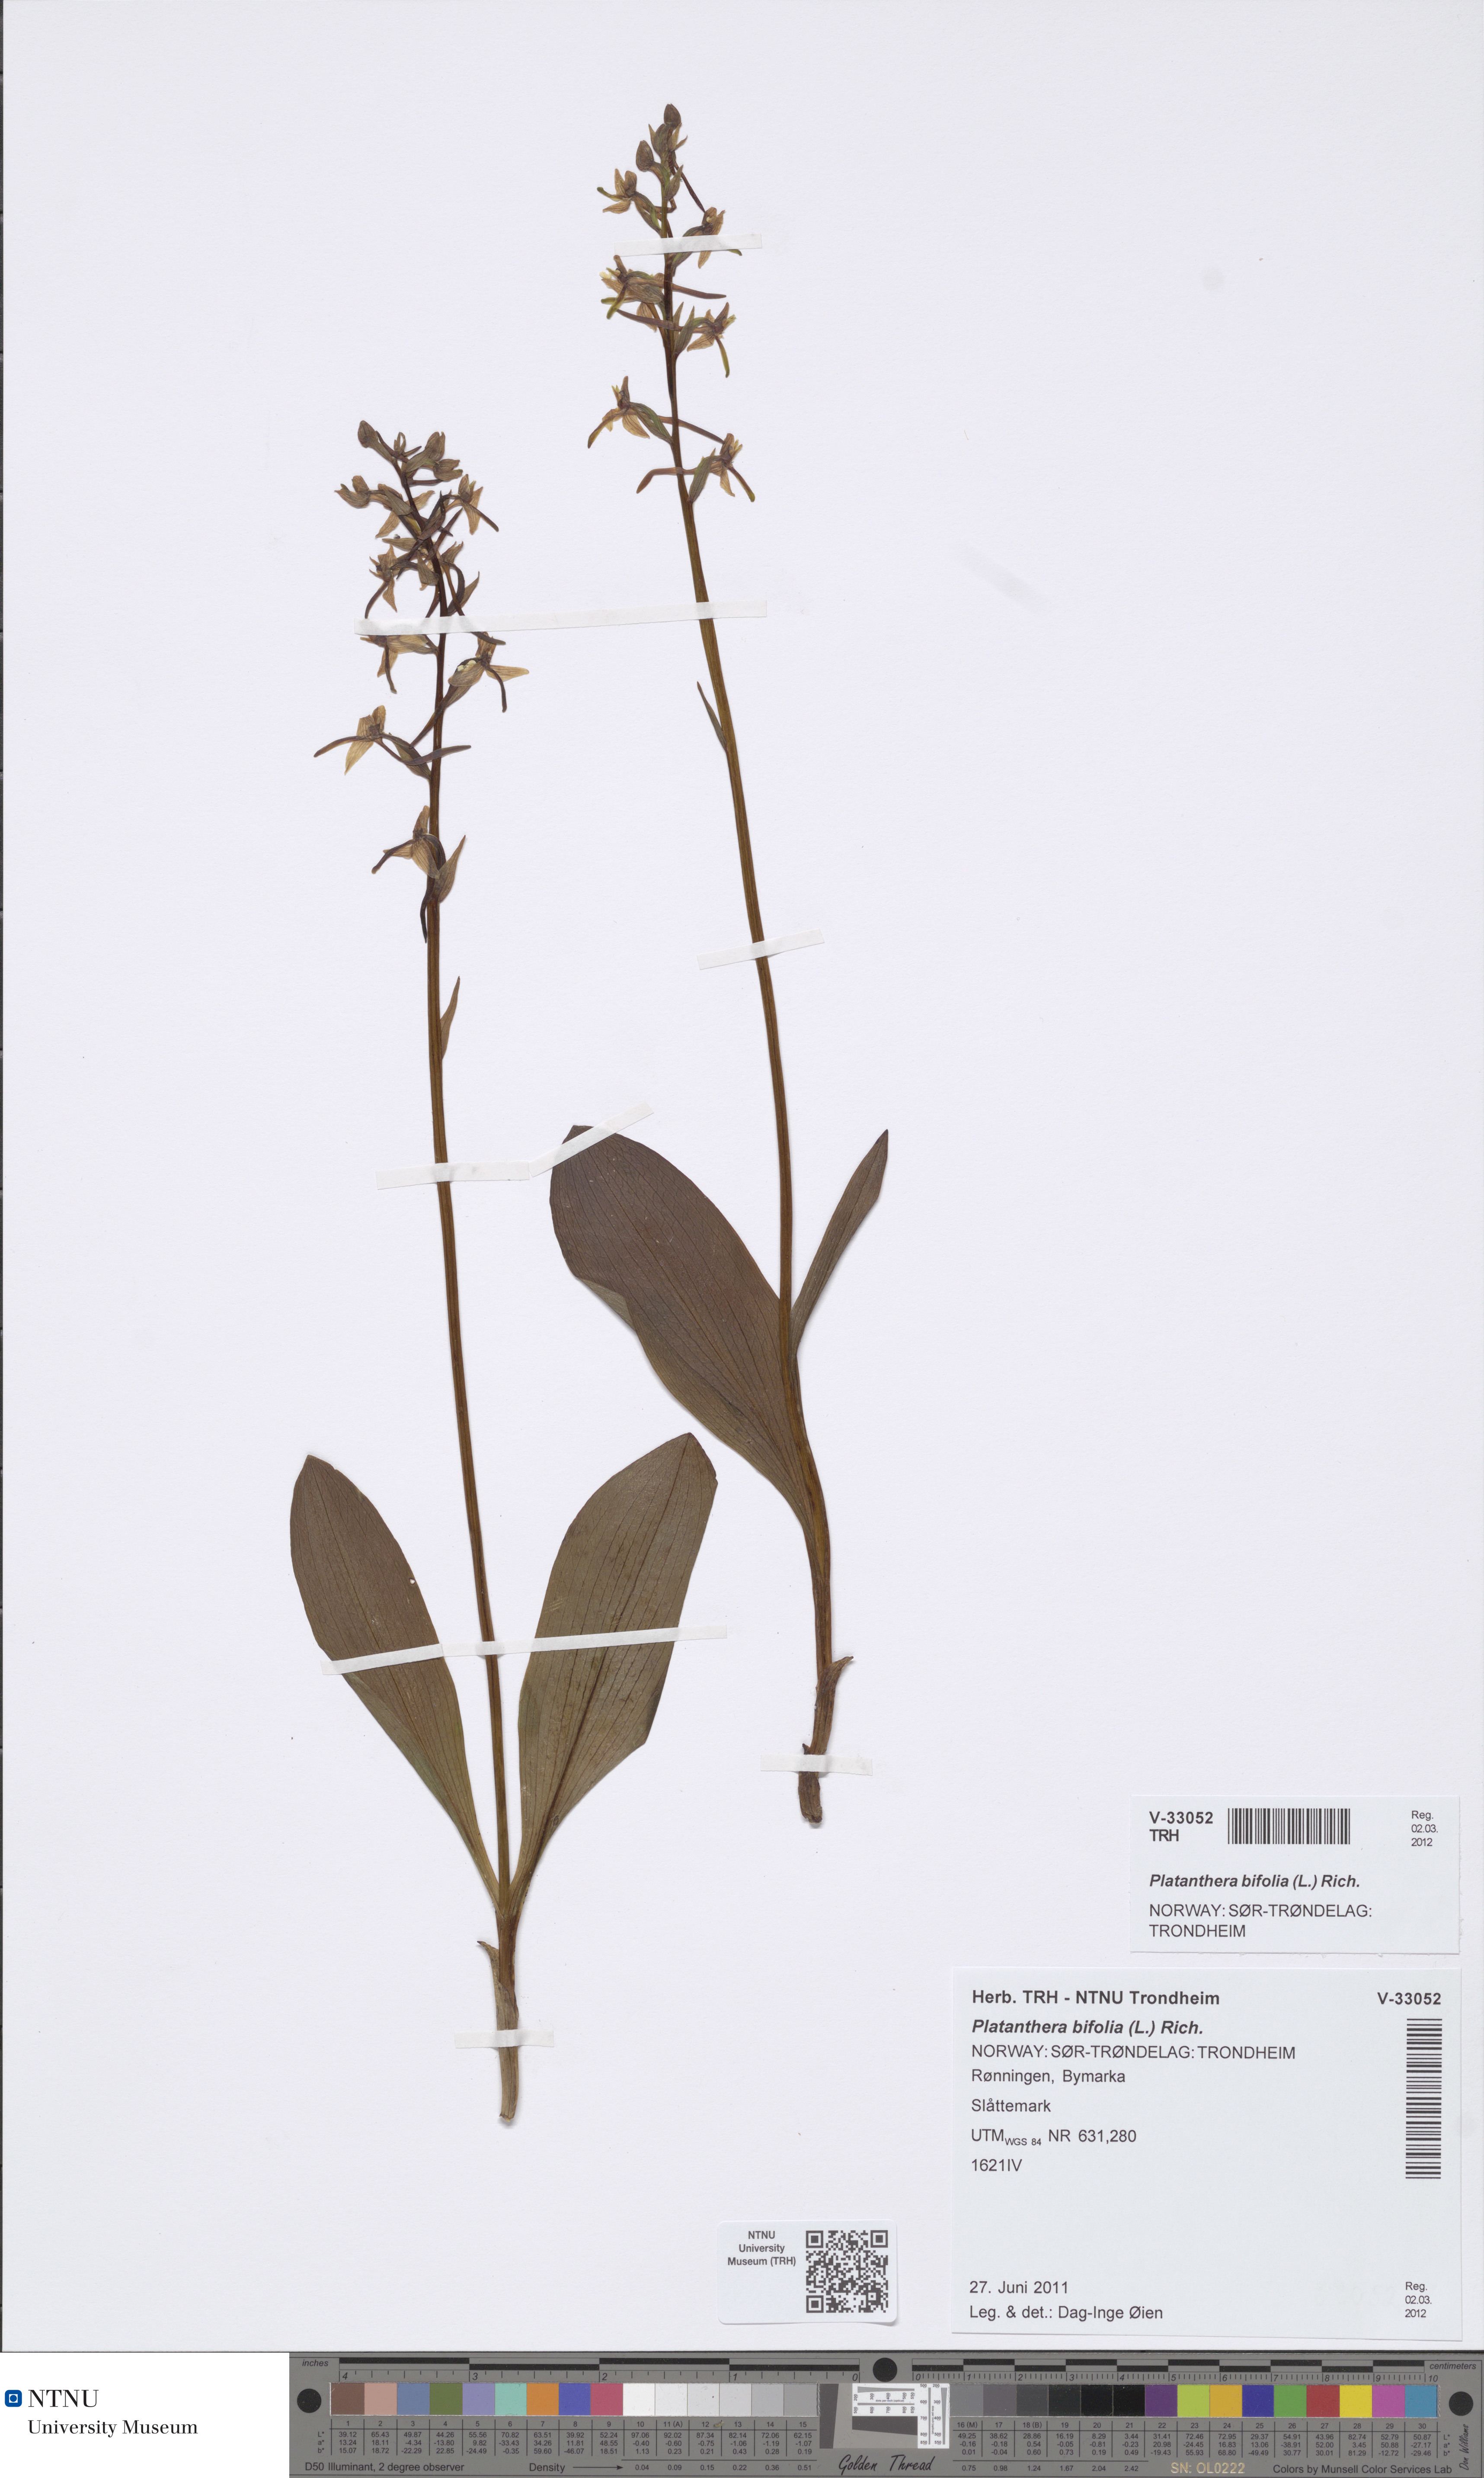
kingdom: Plantae
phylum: Tracheophyta
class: Liliopsida
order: Asparagales
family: Orchidaceae
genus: Platanthera
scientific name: Platanthera bifolia
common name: Lesser butterfly-orchid
